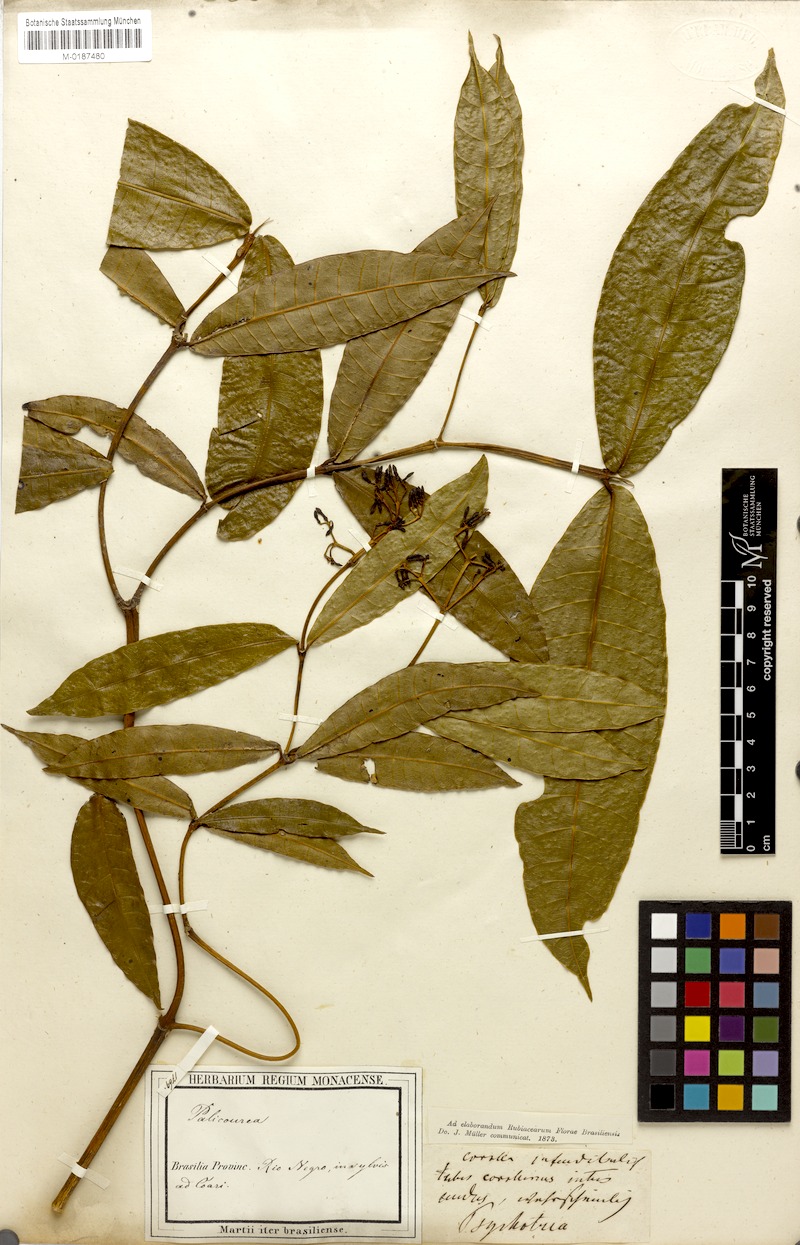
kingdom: Plantae
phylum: Tracheophyta
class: Magnoliopsida
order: Gentianales
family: Rubiaceae
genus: Faramea
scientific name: Faramea sessilifolia
